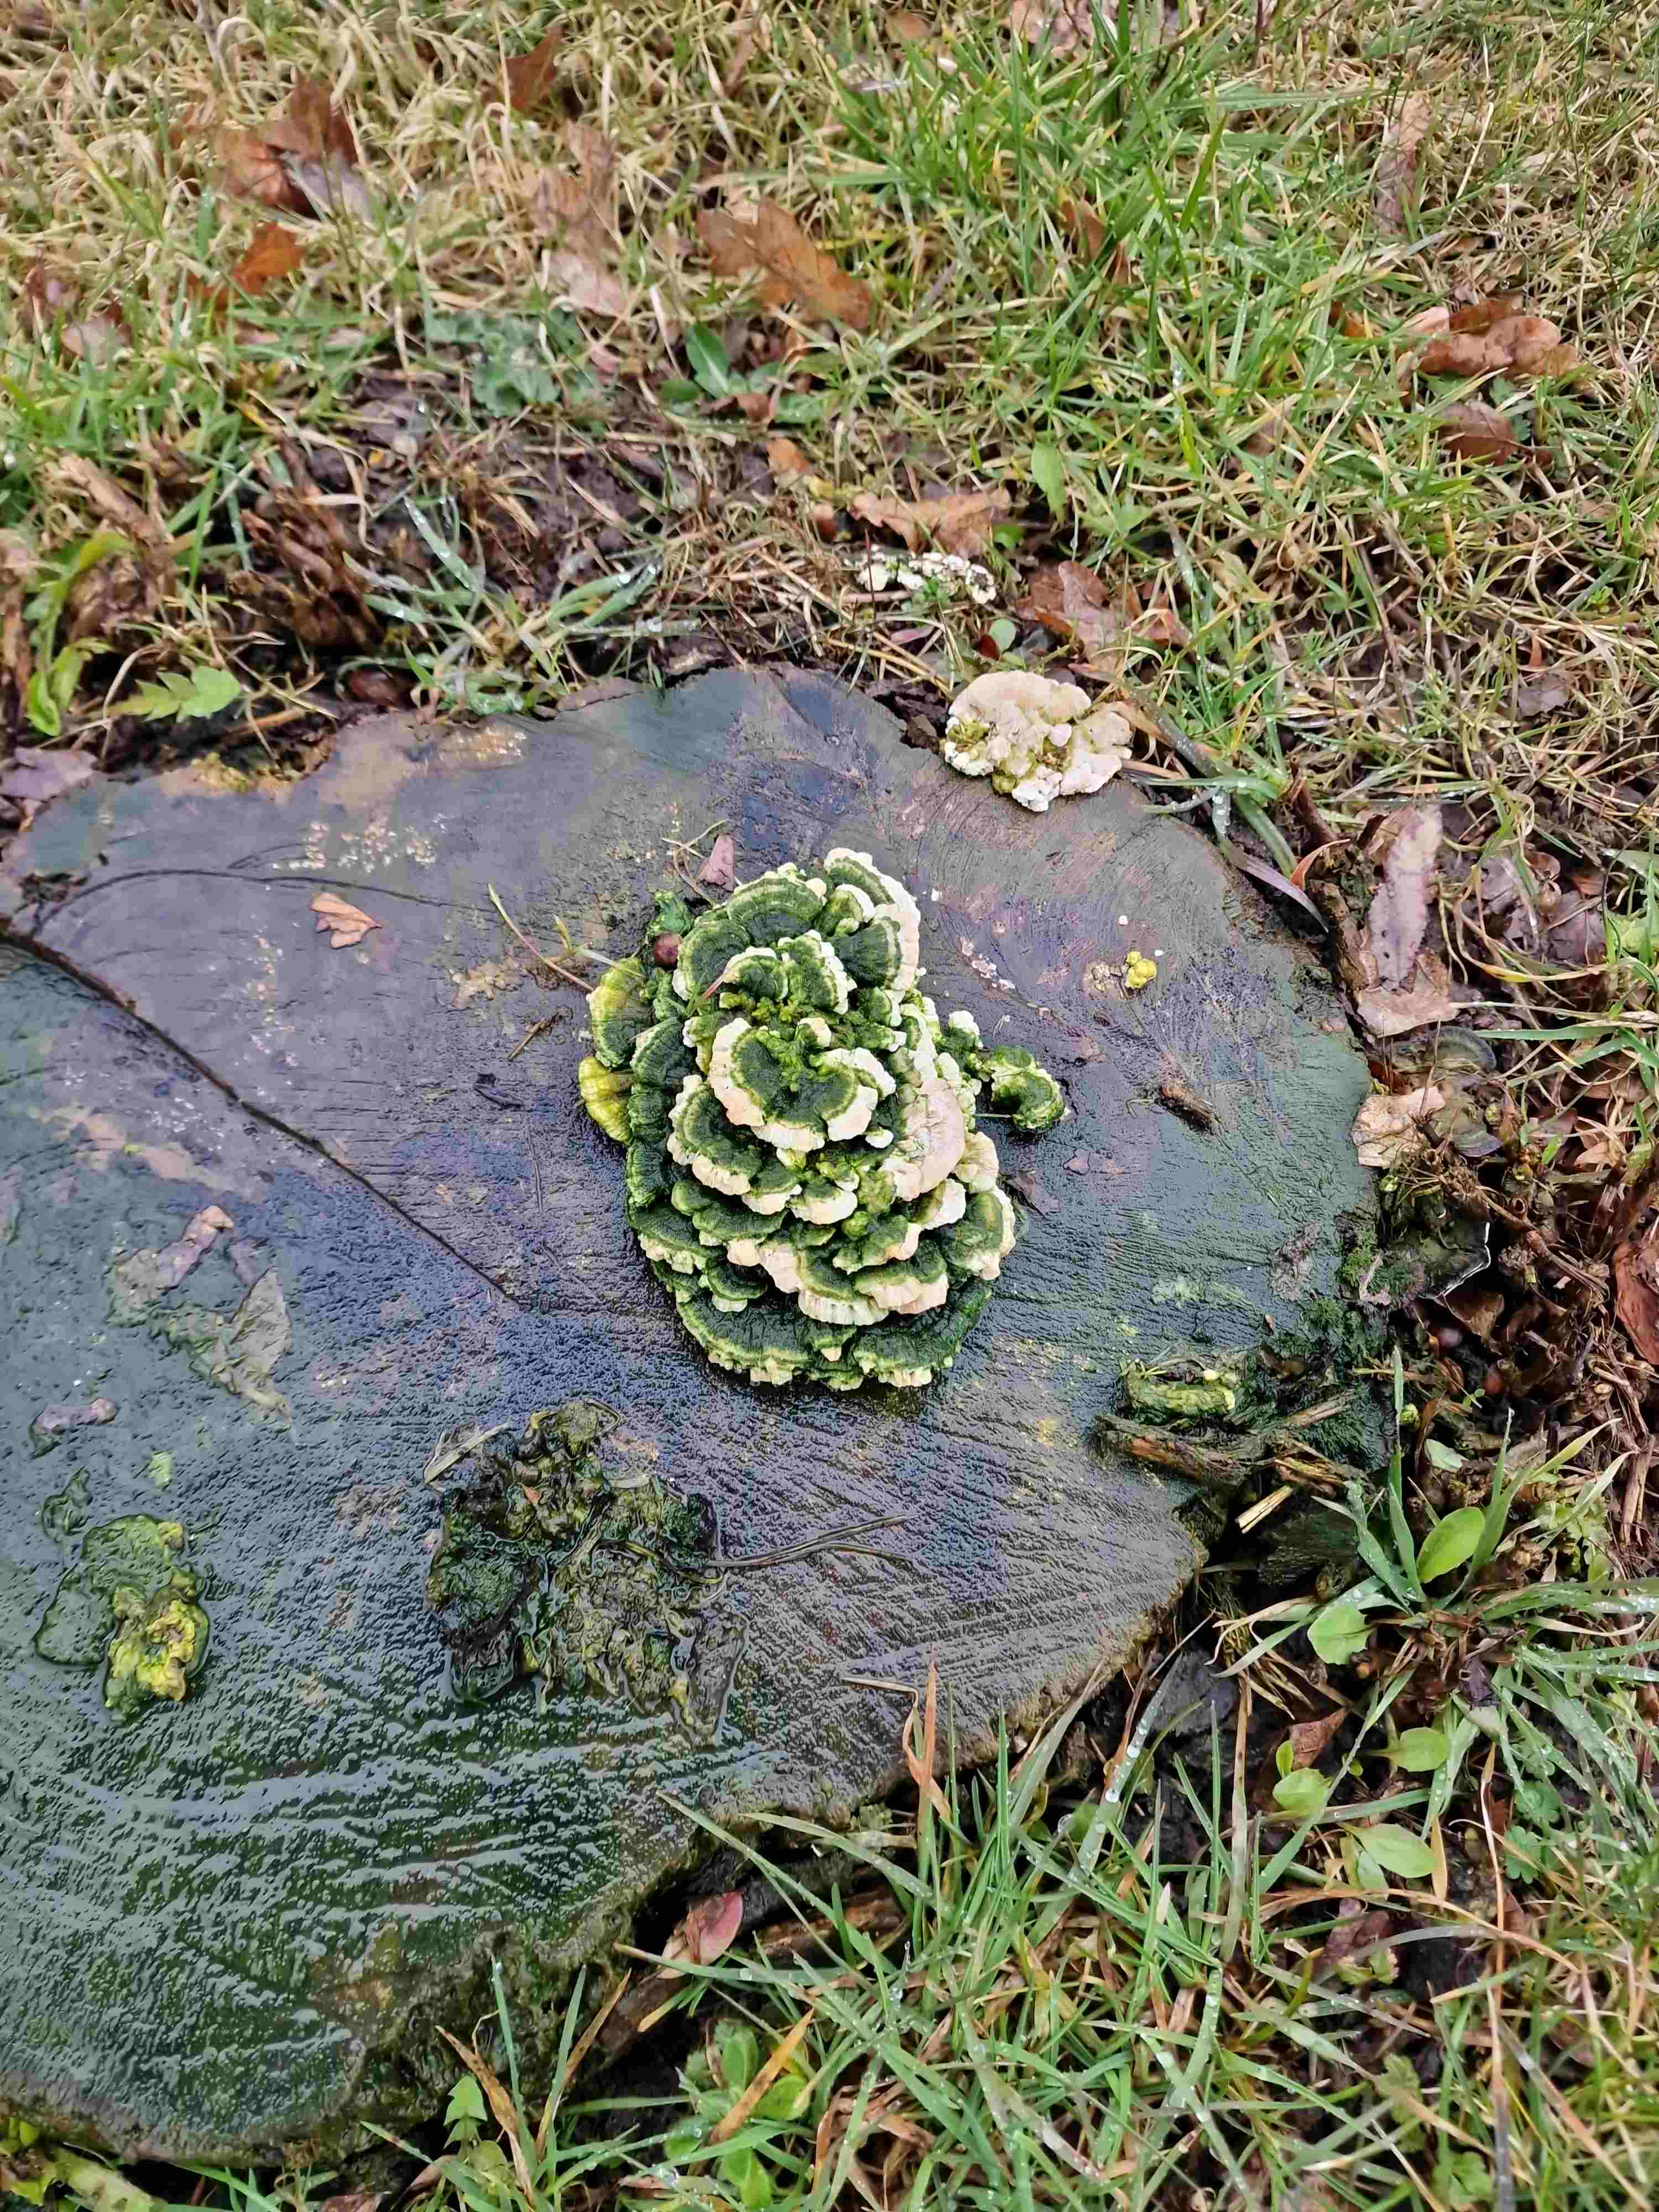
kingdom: Fungi
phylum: Basidiomycota
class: Agaricomycetes
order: Polyporales
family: Polyporaceae
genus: Trametes
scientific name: Trametes gibbosa
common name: puklet læderporesvamp
